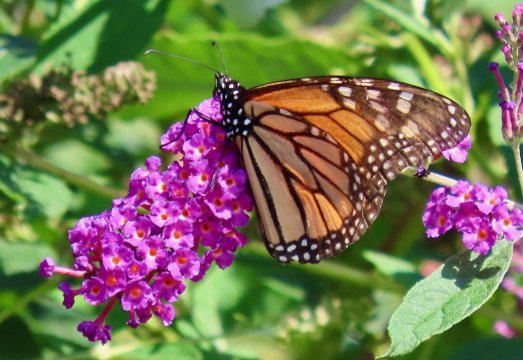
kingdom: Animalia
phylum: Arthropoda
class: Insecta
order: Lepidoptera
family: Nymphalidae
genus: Danaus
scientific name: Danaus plexippus
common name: Monarch
